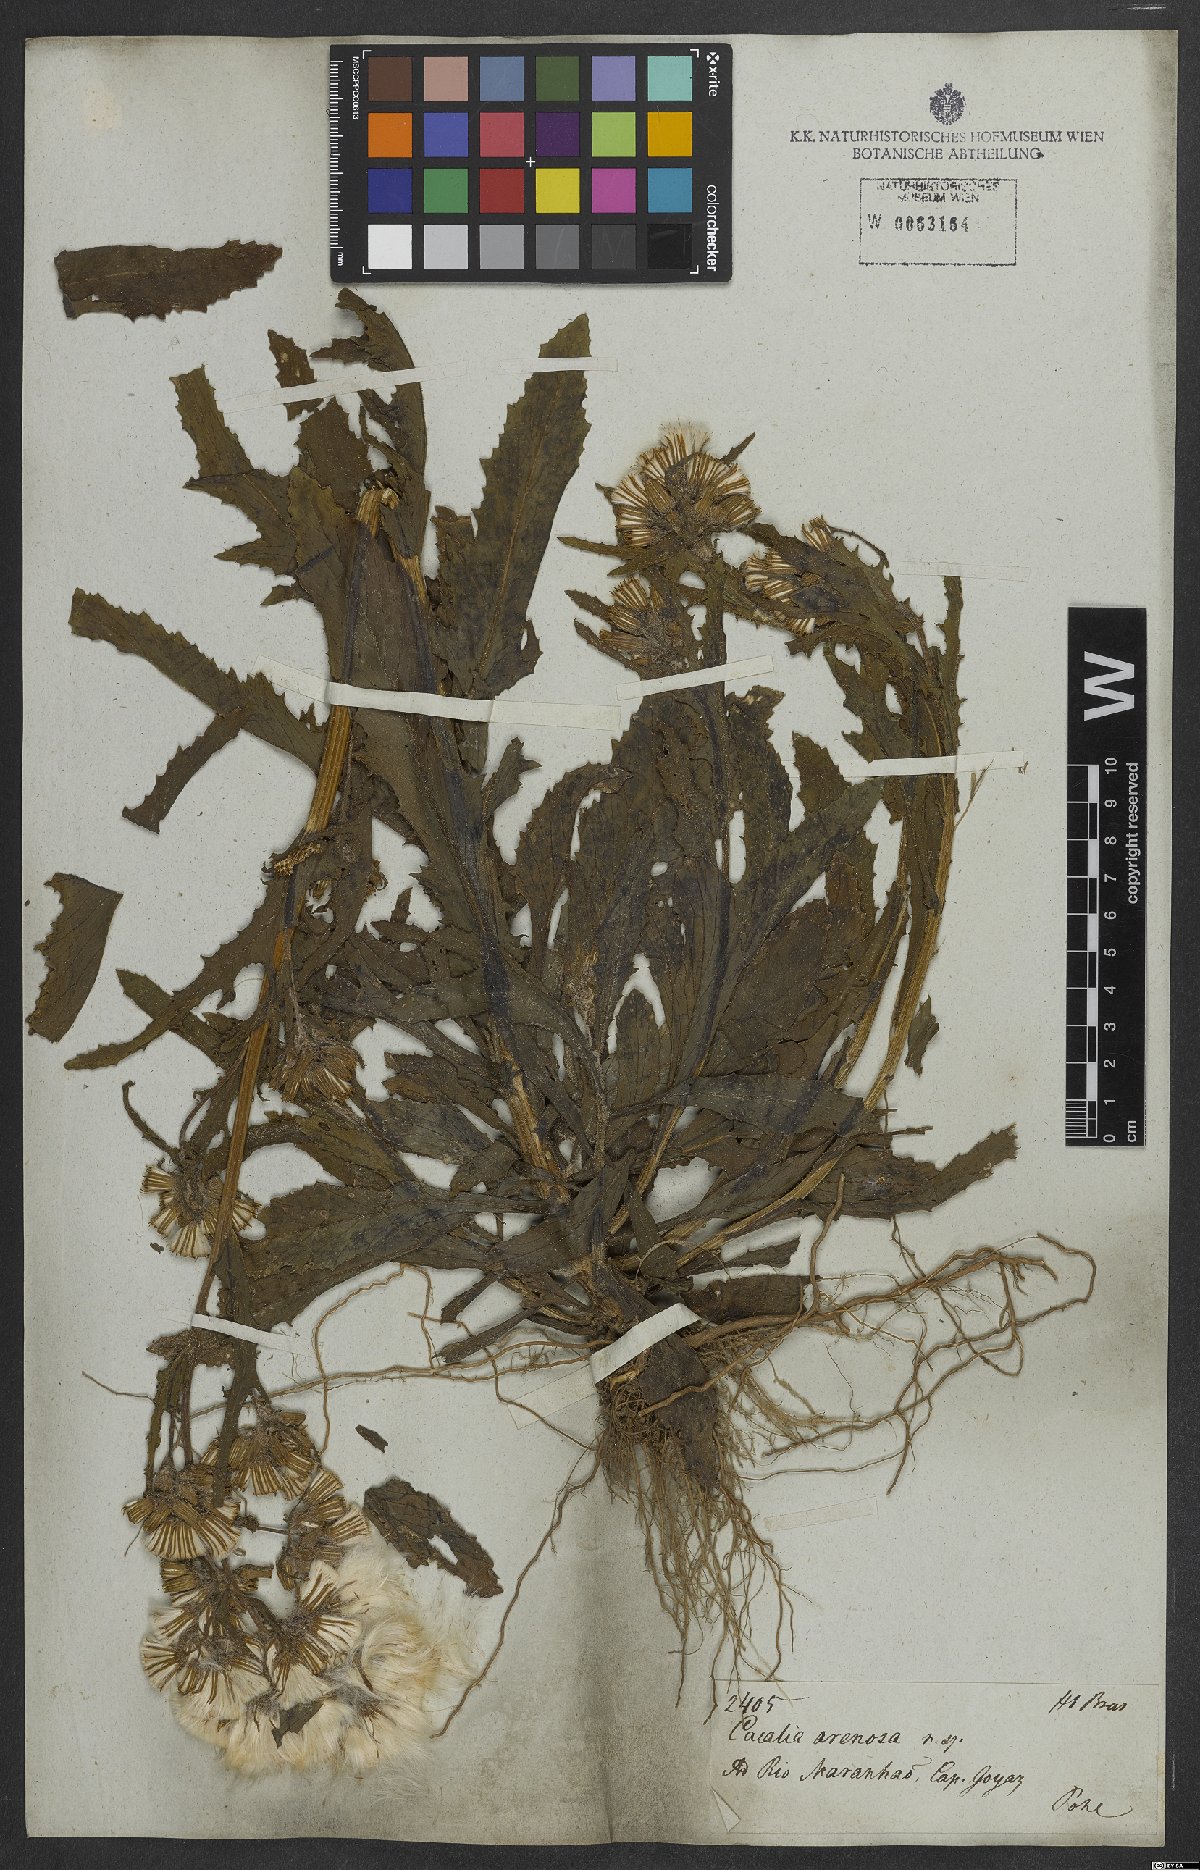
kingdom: Plantae
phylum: Tracheophyta
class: Magnoliopsida
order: Asterales
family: Asteraceae
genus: Erechtites
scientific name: Erechtites hieraciifolius
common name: American burnweed
